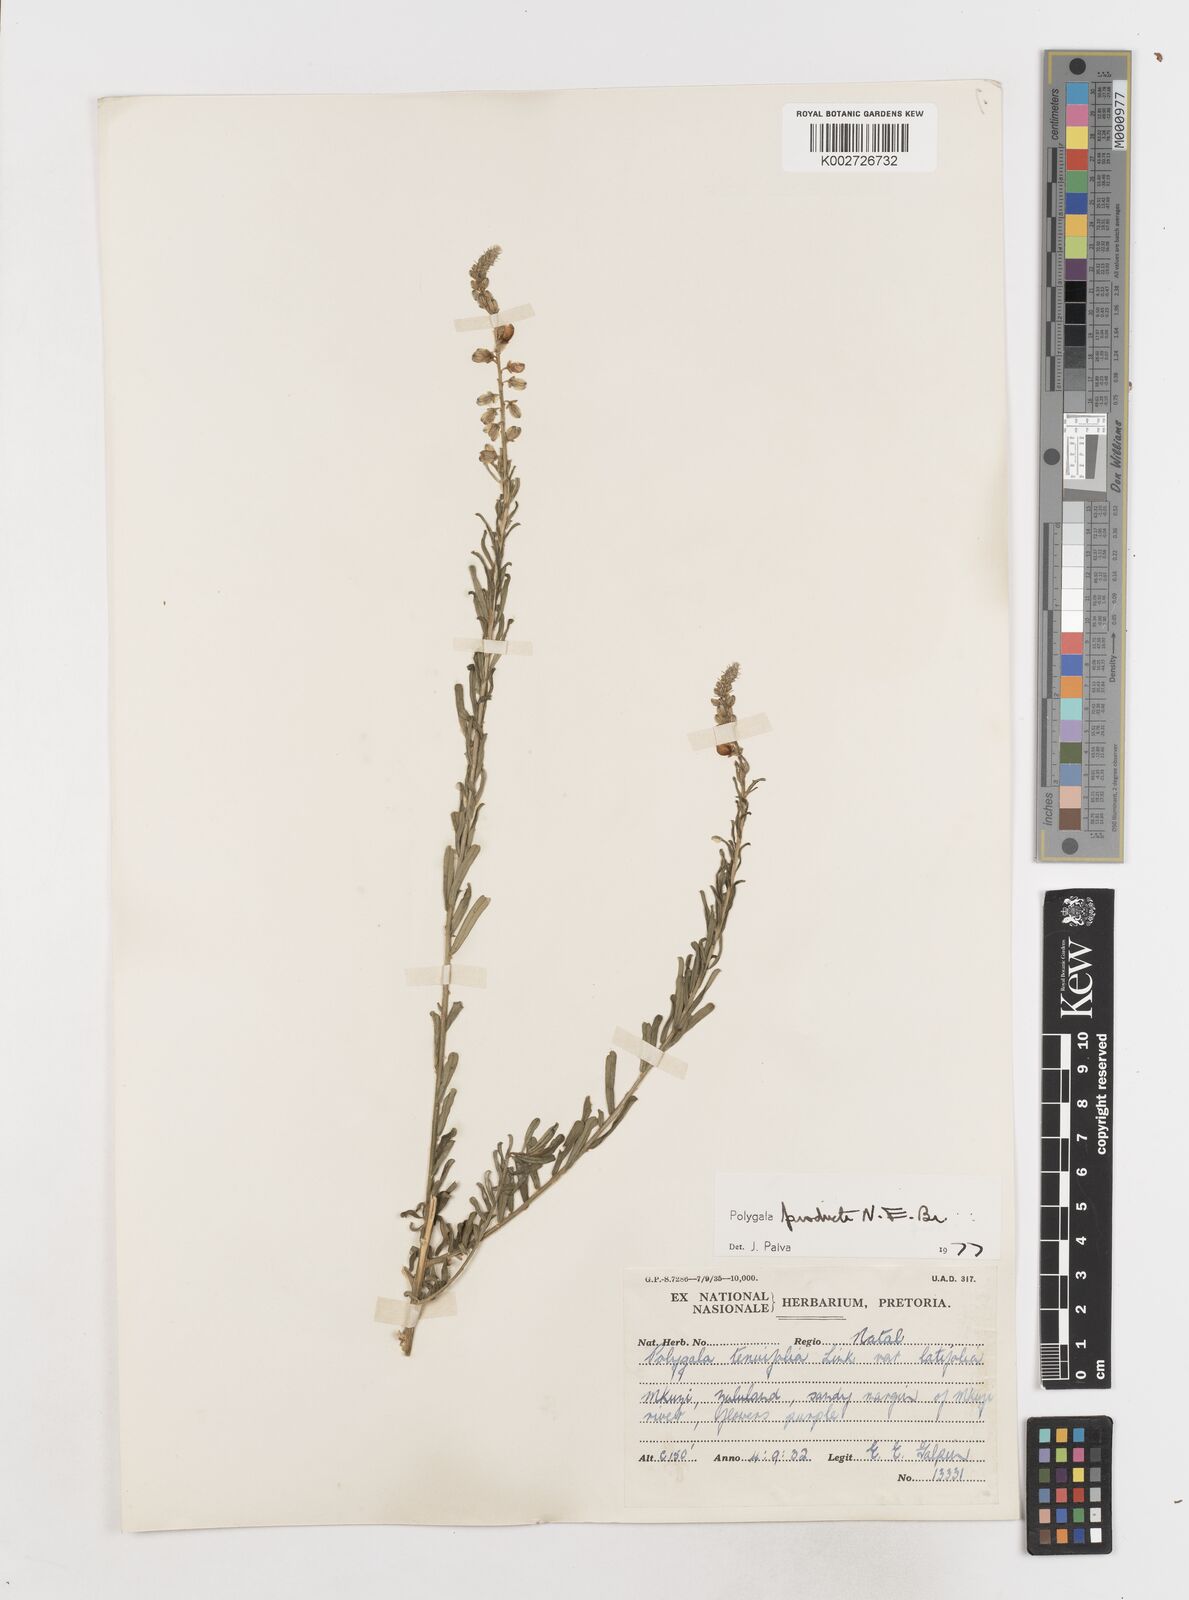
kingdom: Plantae
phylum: Tracheophyta
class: Magnoliopsida
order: Fabales
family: Polygalaceae
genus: Polygala
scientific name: Polygala producta
